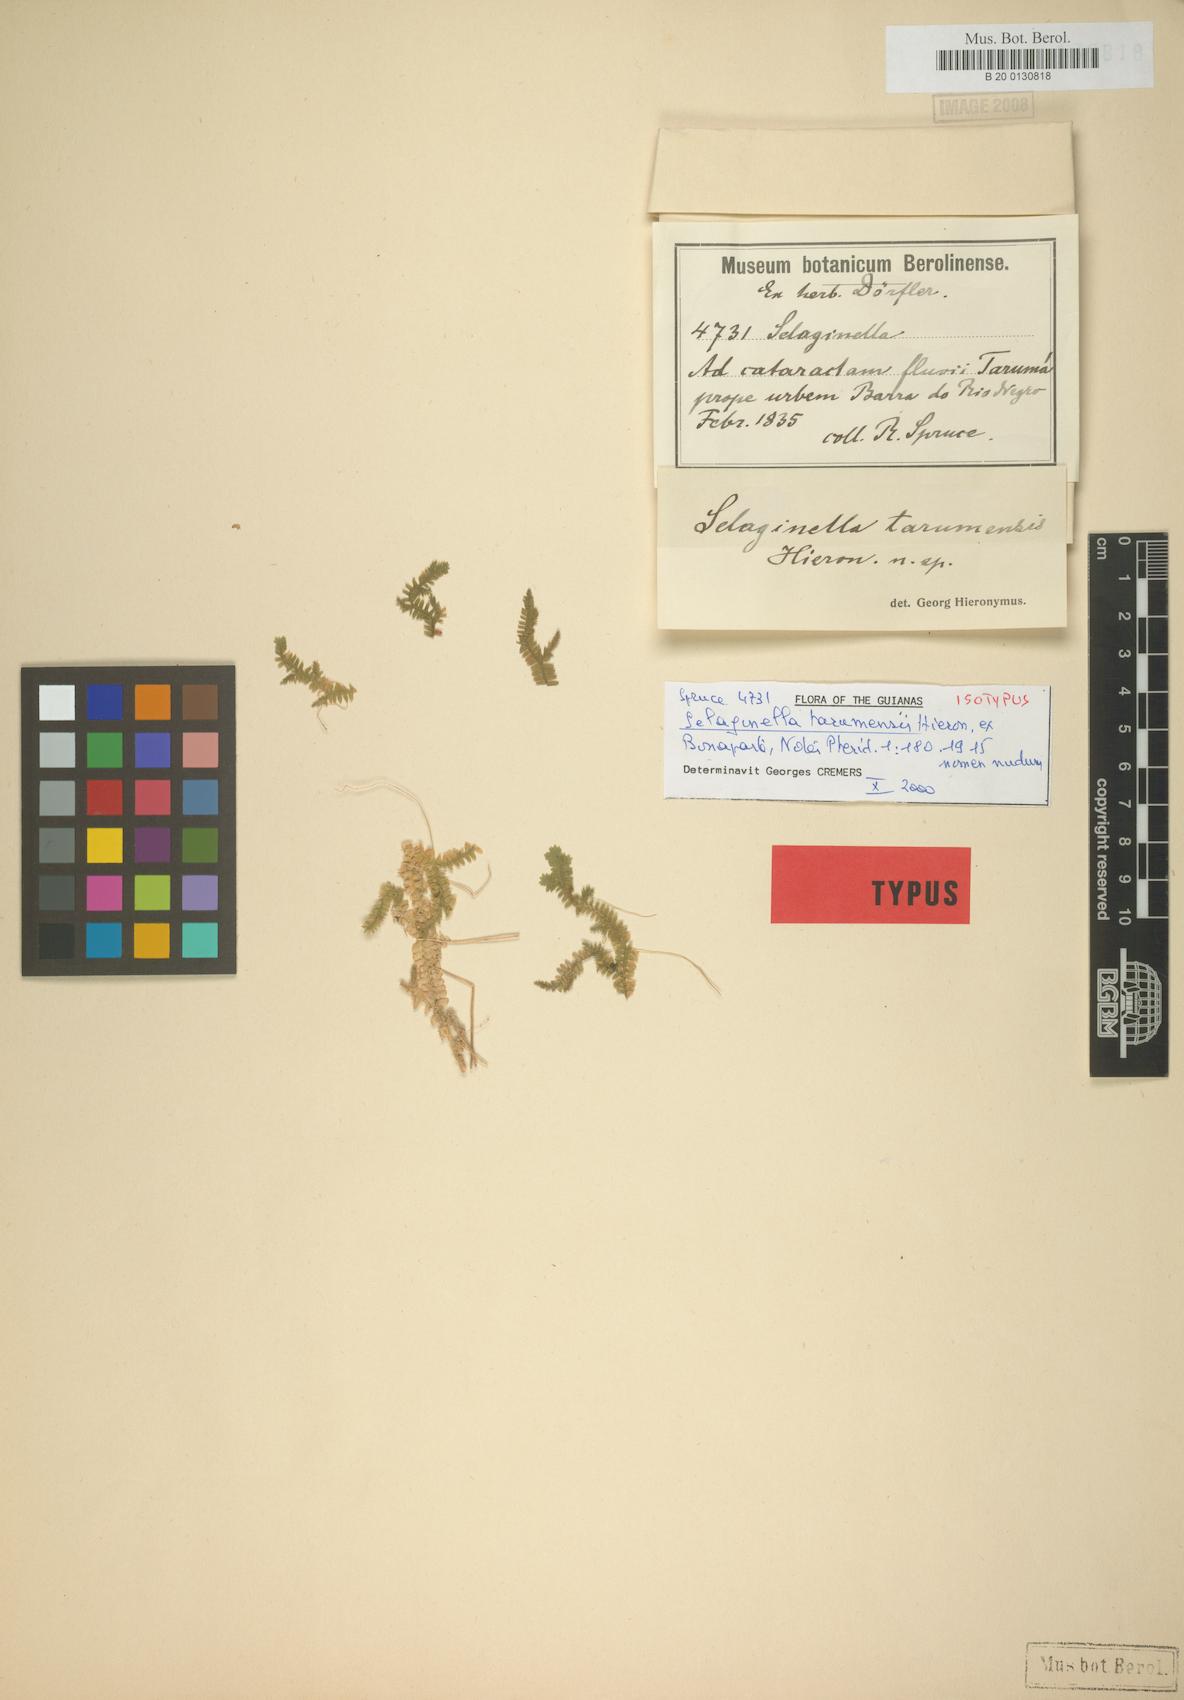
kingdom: Plantae
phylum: Tracheophyta
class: Lycopodiopsida
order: Selaginellales
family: Selaginellaceae
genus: Selaginella
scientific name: Selaginella producta
